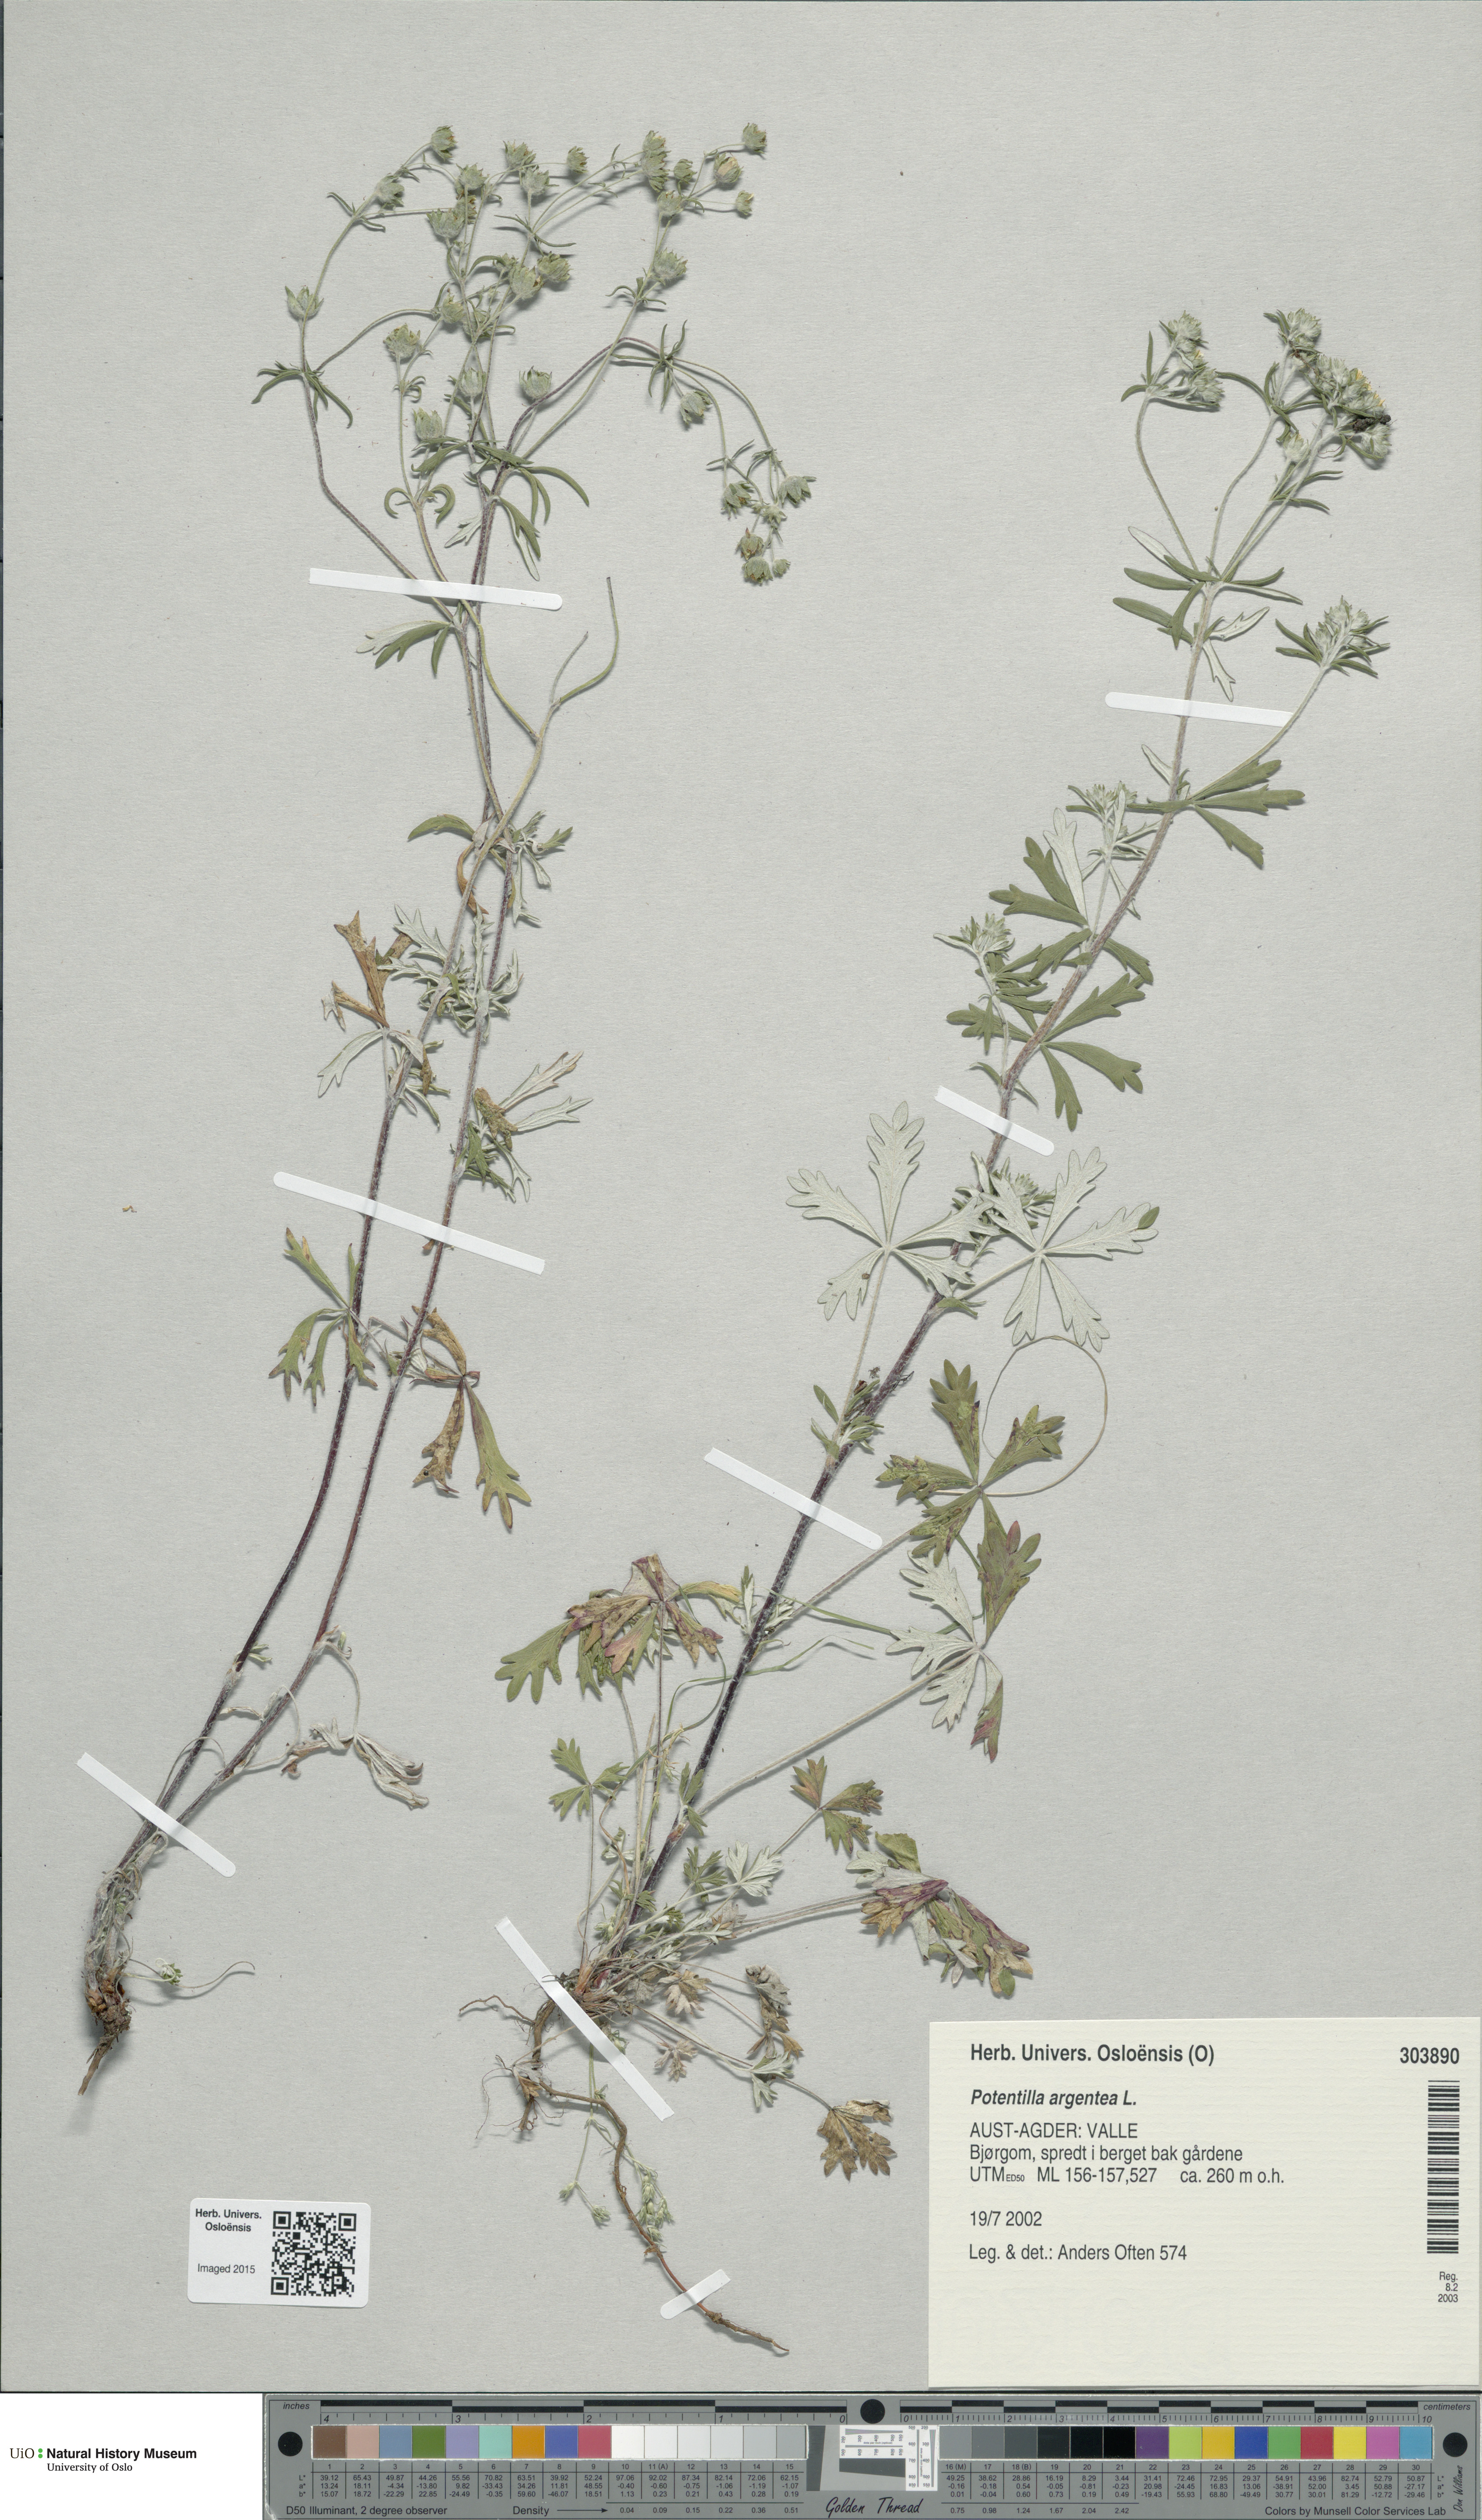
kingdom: Plantae
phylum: Tracheophyta
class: Magnoliopsida
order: Rosales
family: Rosaceae
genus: Potentilla
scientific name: Potentilla argentea
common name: Hoary cinquefoil
